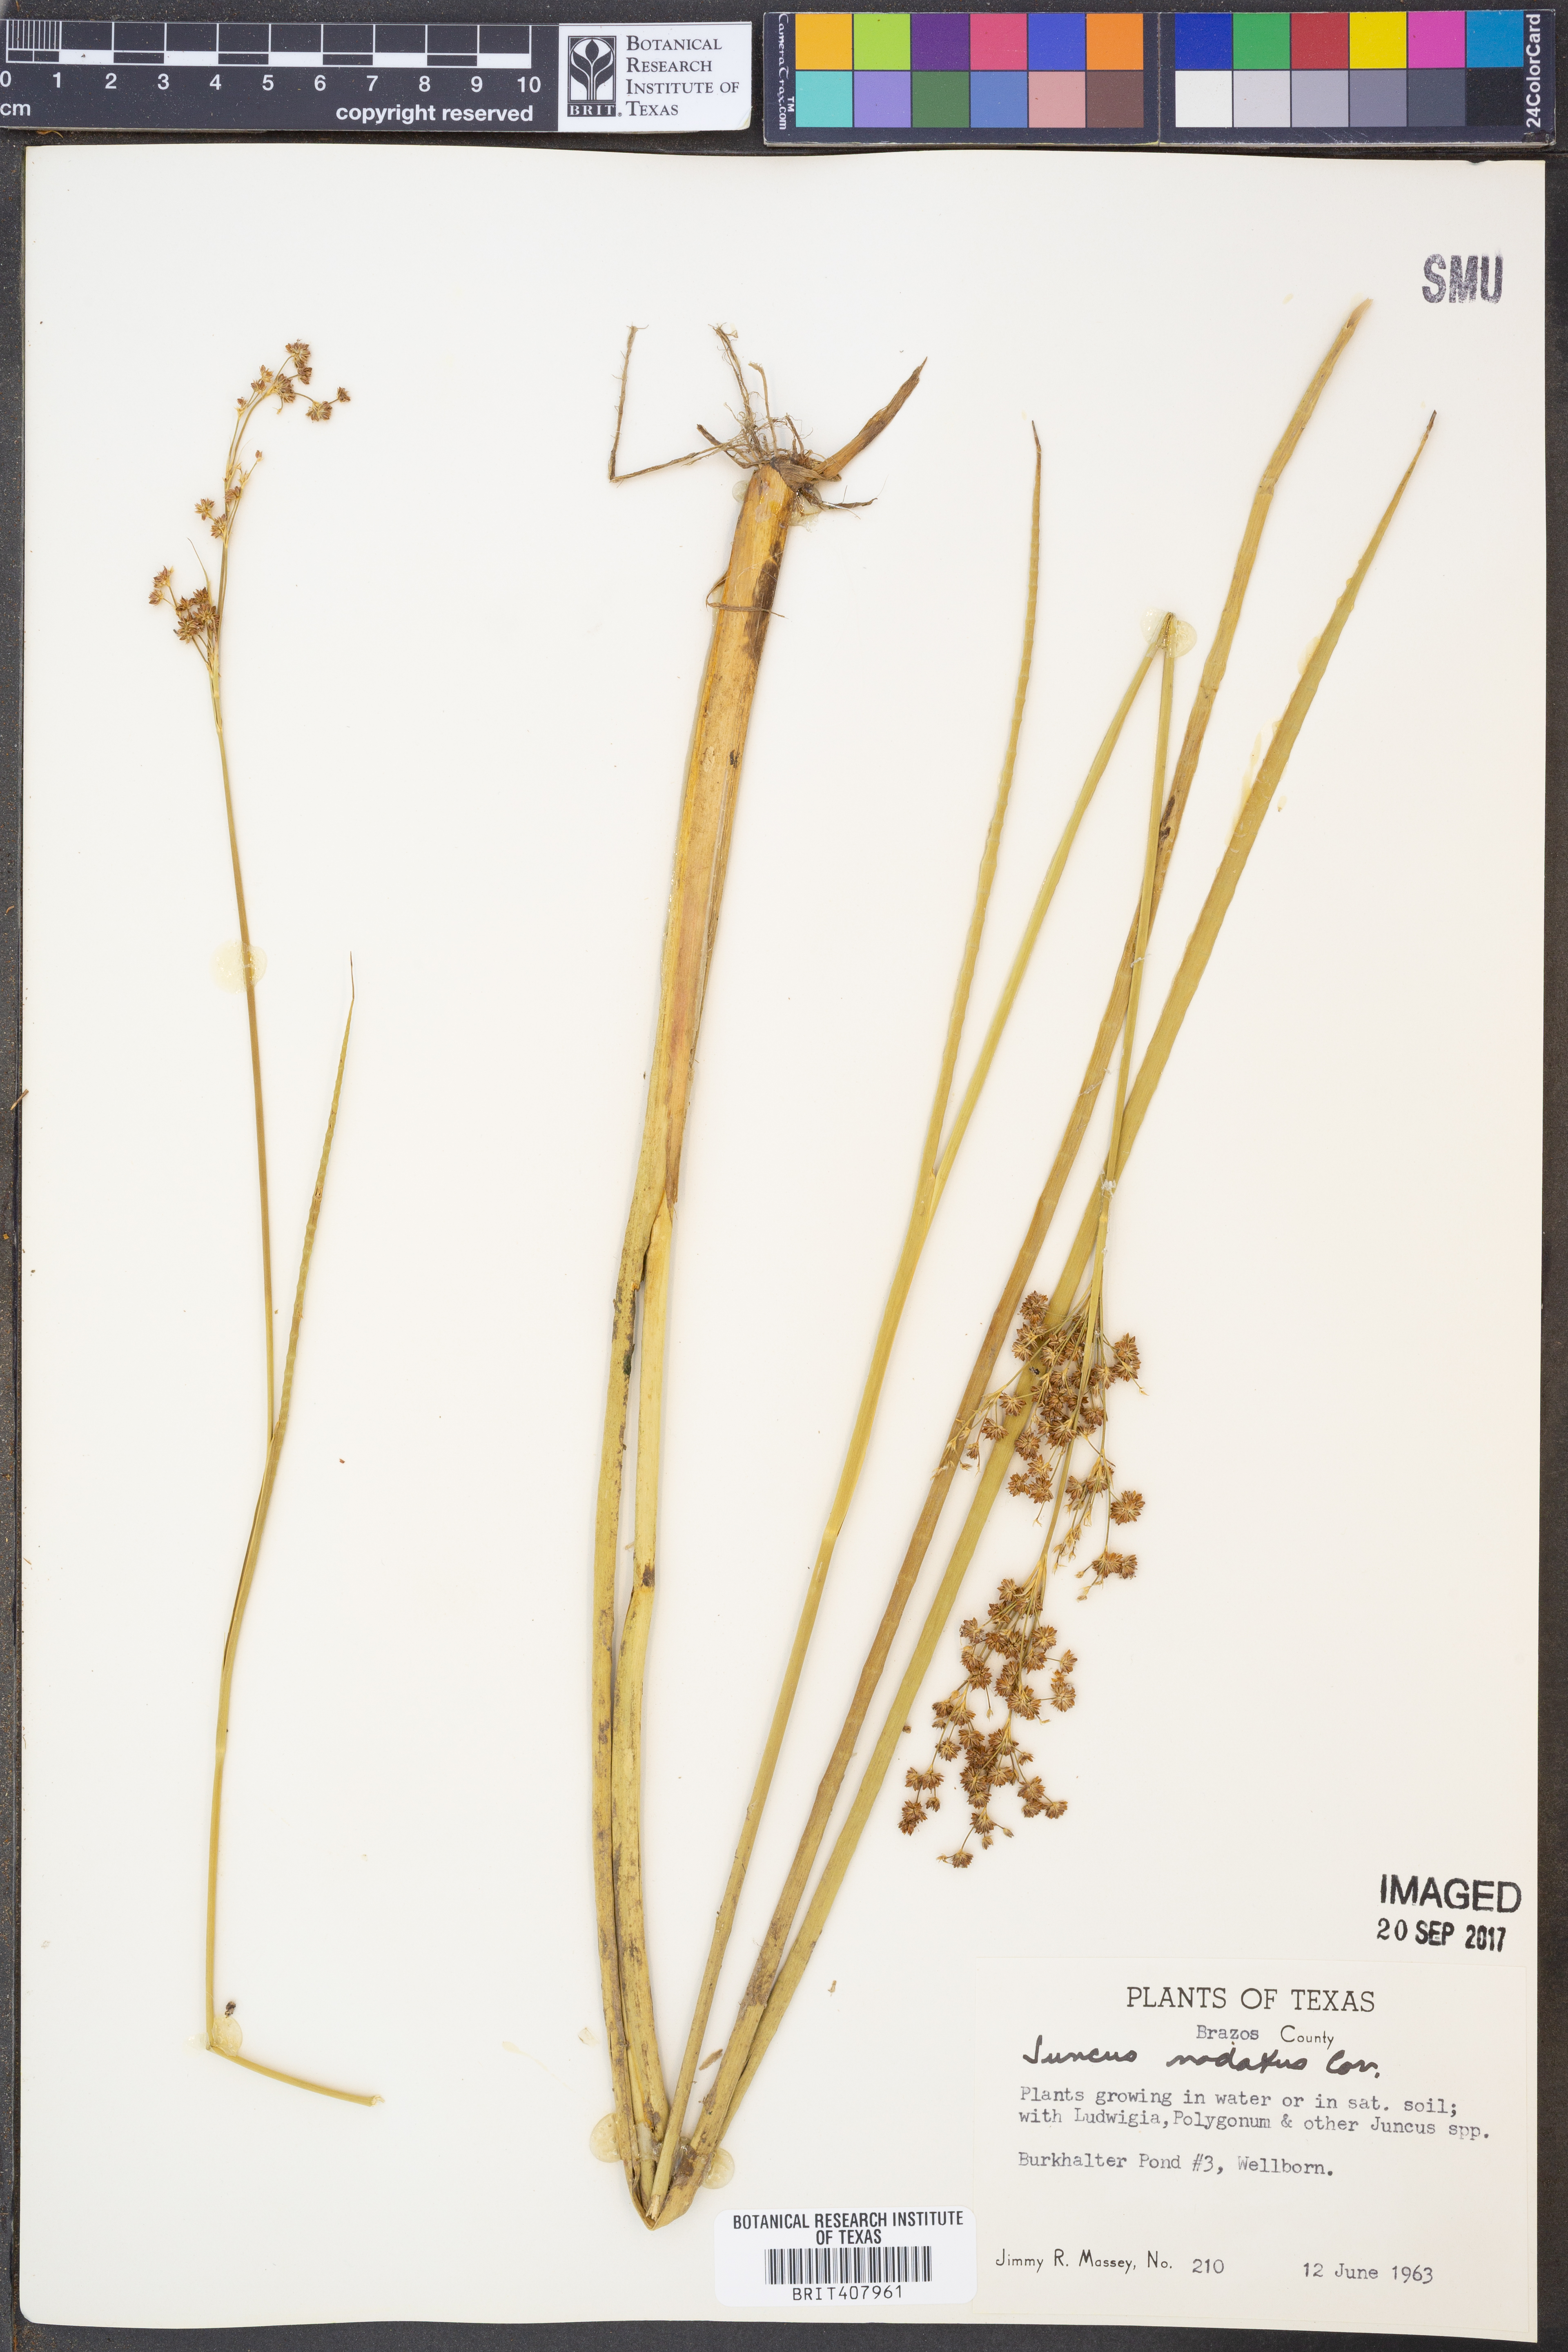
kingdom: Plantae
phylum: Tracheophyta
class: Liliopsida
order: Poales
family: Juncaceae
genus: Juncus
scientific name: Juncus nodatus
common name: Stout rush
